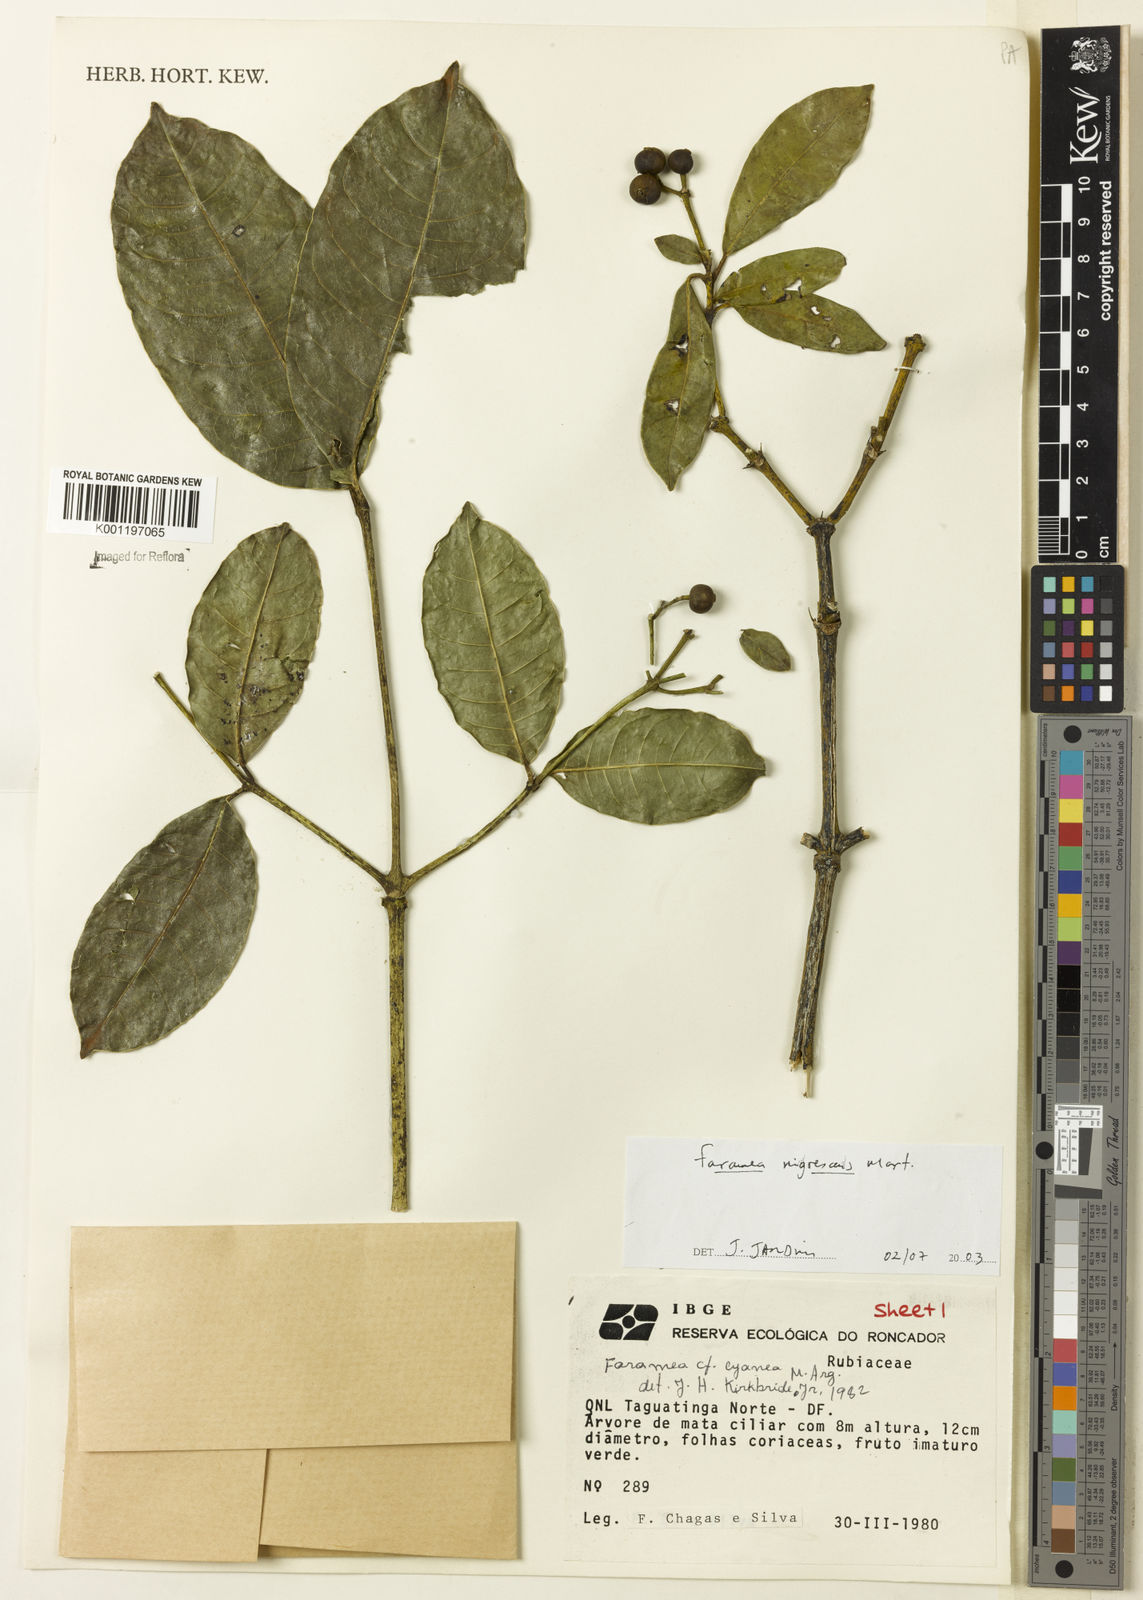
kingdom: Plantae
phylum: Tracheophyta
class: Magnoliopsida
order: Gentianales
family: Rubiaceae
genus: Faramea
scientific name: Faramea nigrescens
